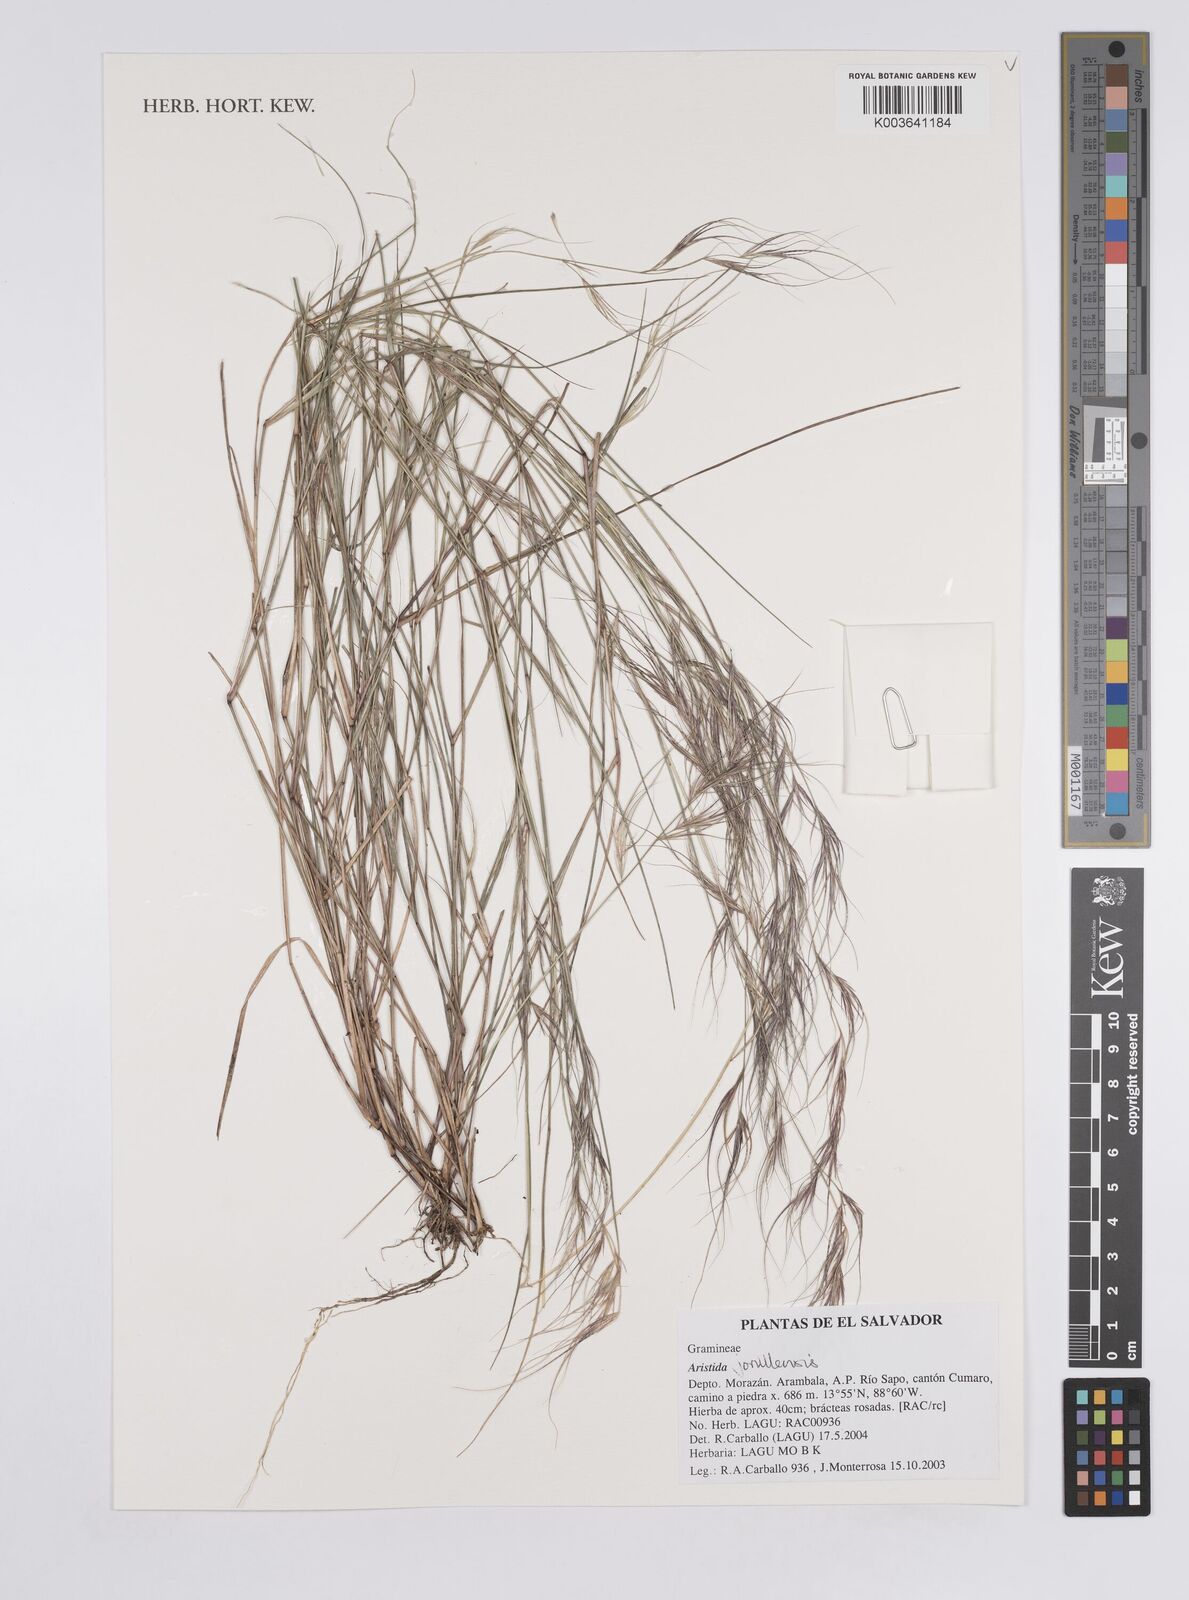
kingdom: Plantae
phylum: Tracheophyta
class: Liliopsida
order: Poales
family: Poaceae
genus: Aristida
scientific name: Aristida jorullensis
